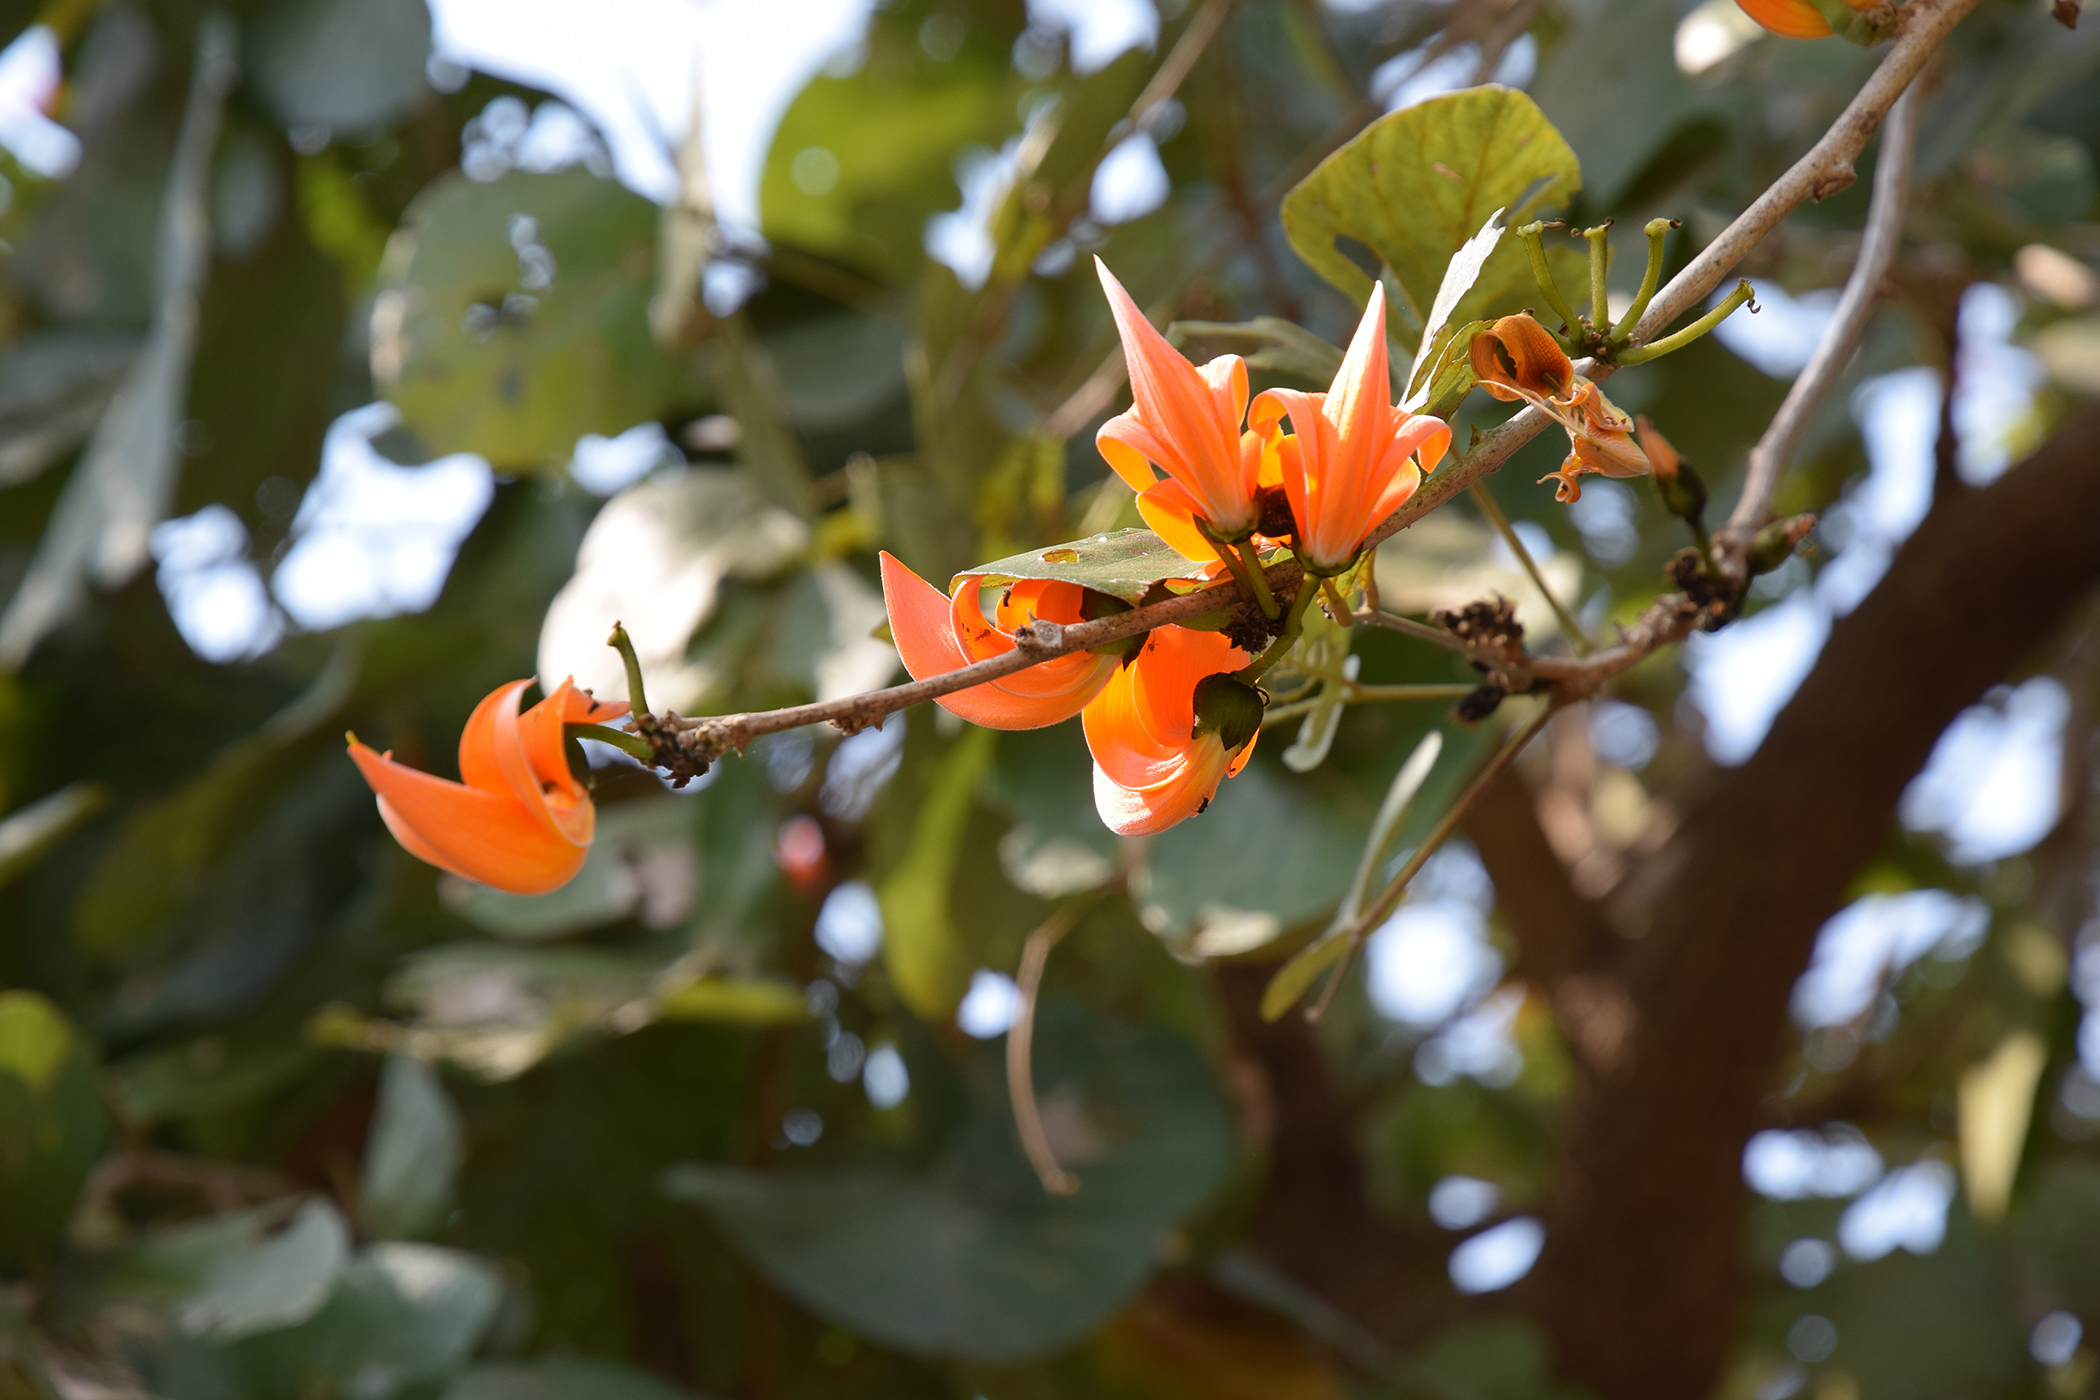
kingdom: Plantae
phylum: Tracheophyta
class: Magnoliopsida
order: Fabales
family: Fabaceae
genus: Butea
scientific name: Butea monosperma
